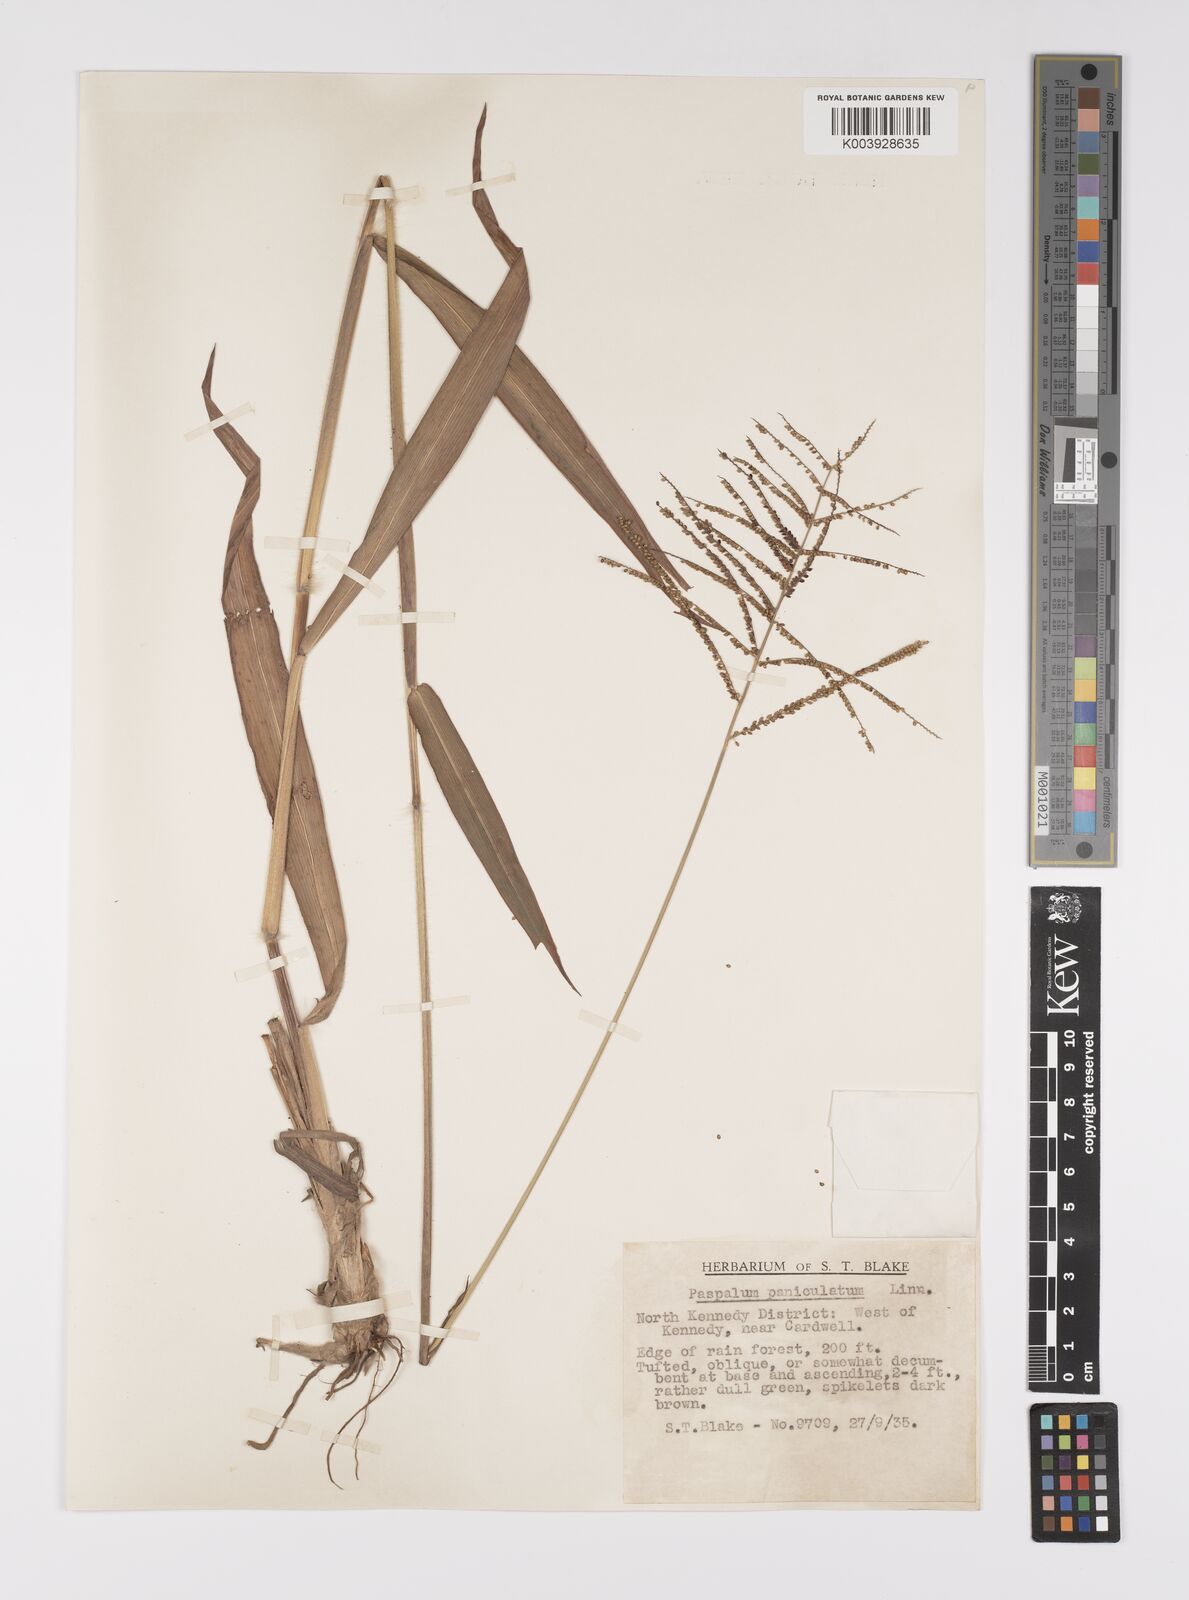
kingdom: Plantae
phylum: Tracheophyta
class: Liliopsida
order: Poales
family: Poaceae
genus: Paspalum
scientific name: Paspalum paniculatum
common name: Arrocillo
